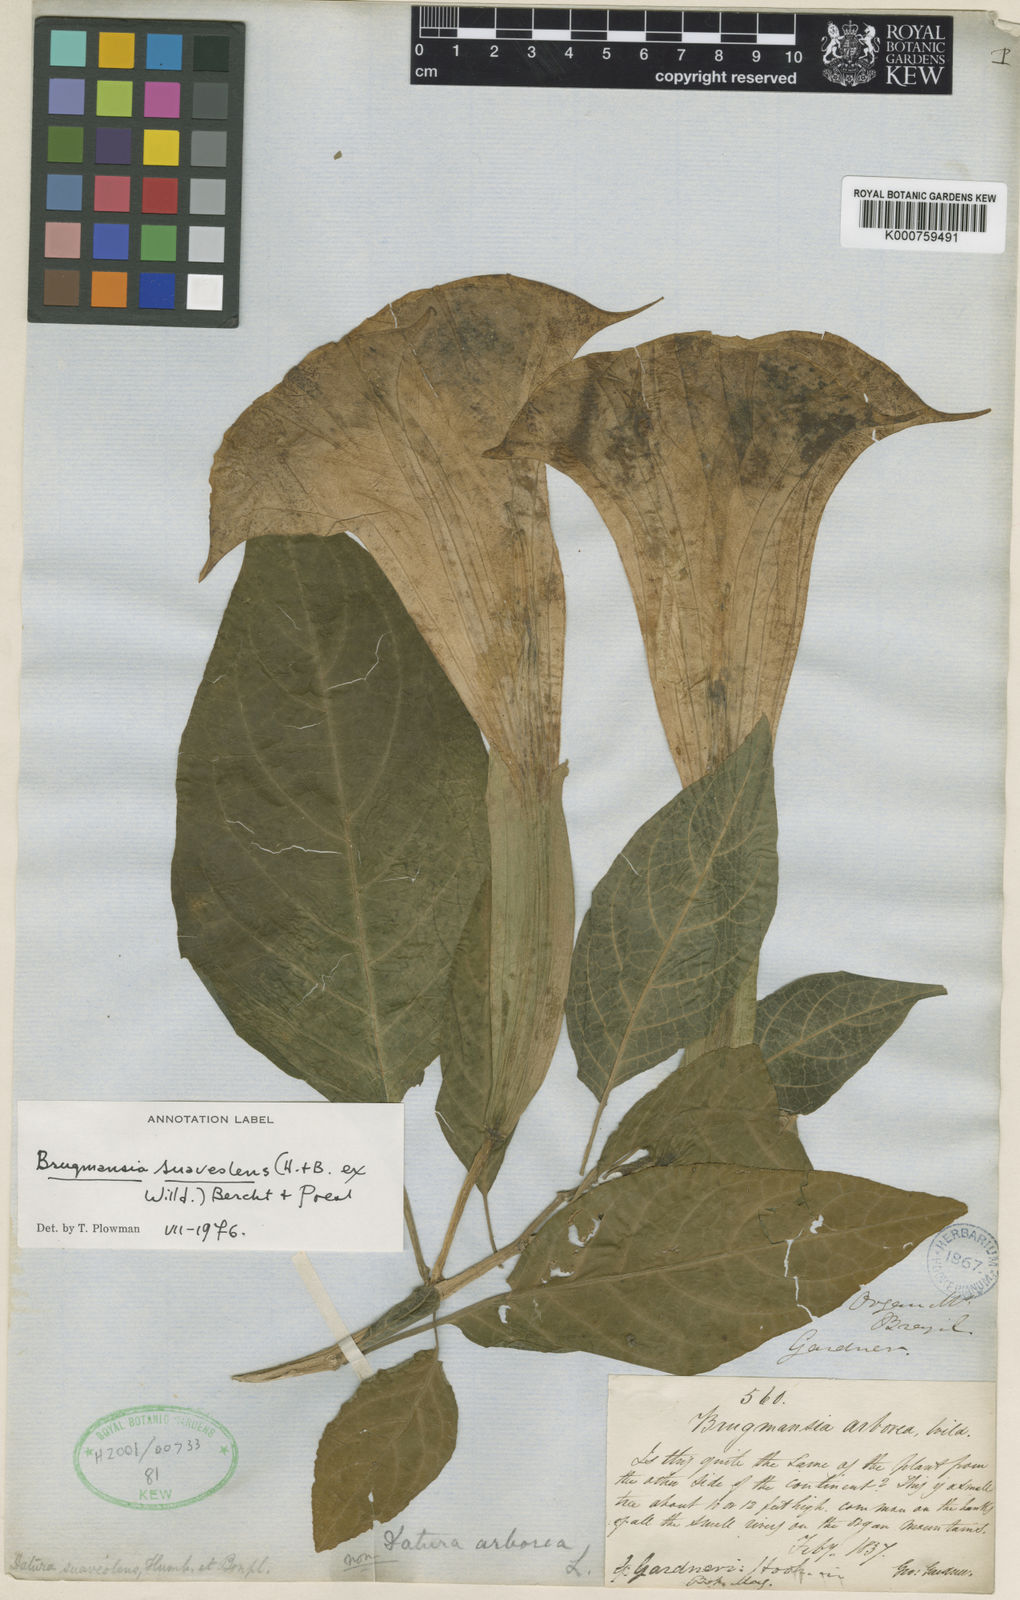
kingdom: Plantae
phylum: Tracheophyta
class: Magnoliopsida
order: Solanales
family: Solanaceae
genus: Brugmansia
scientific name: Brugmansia
